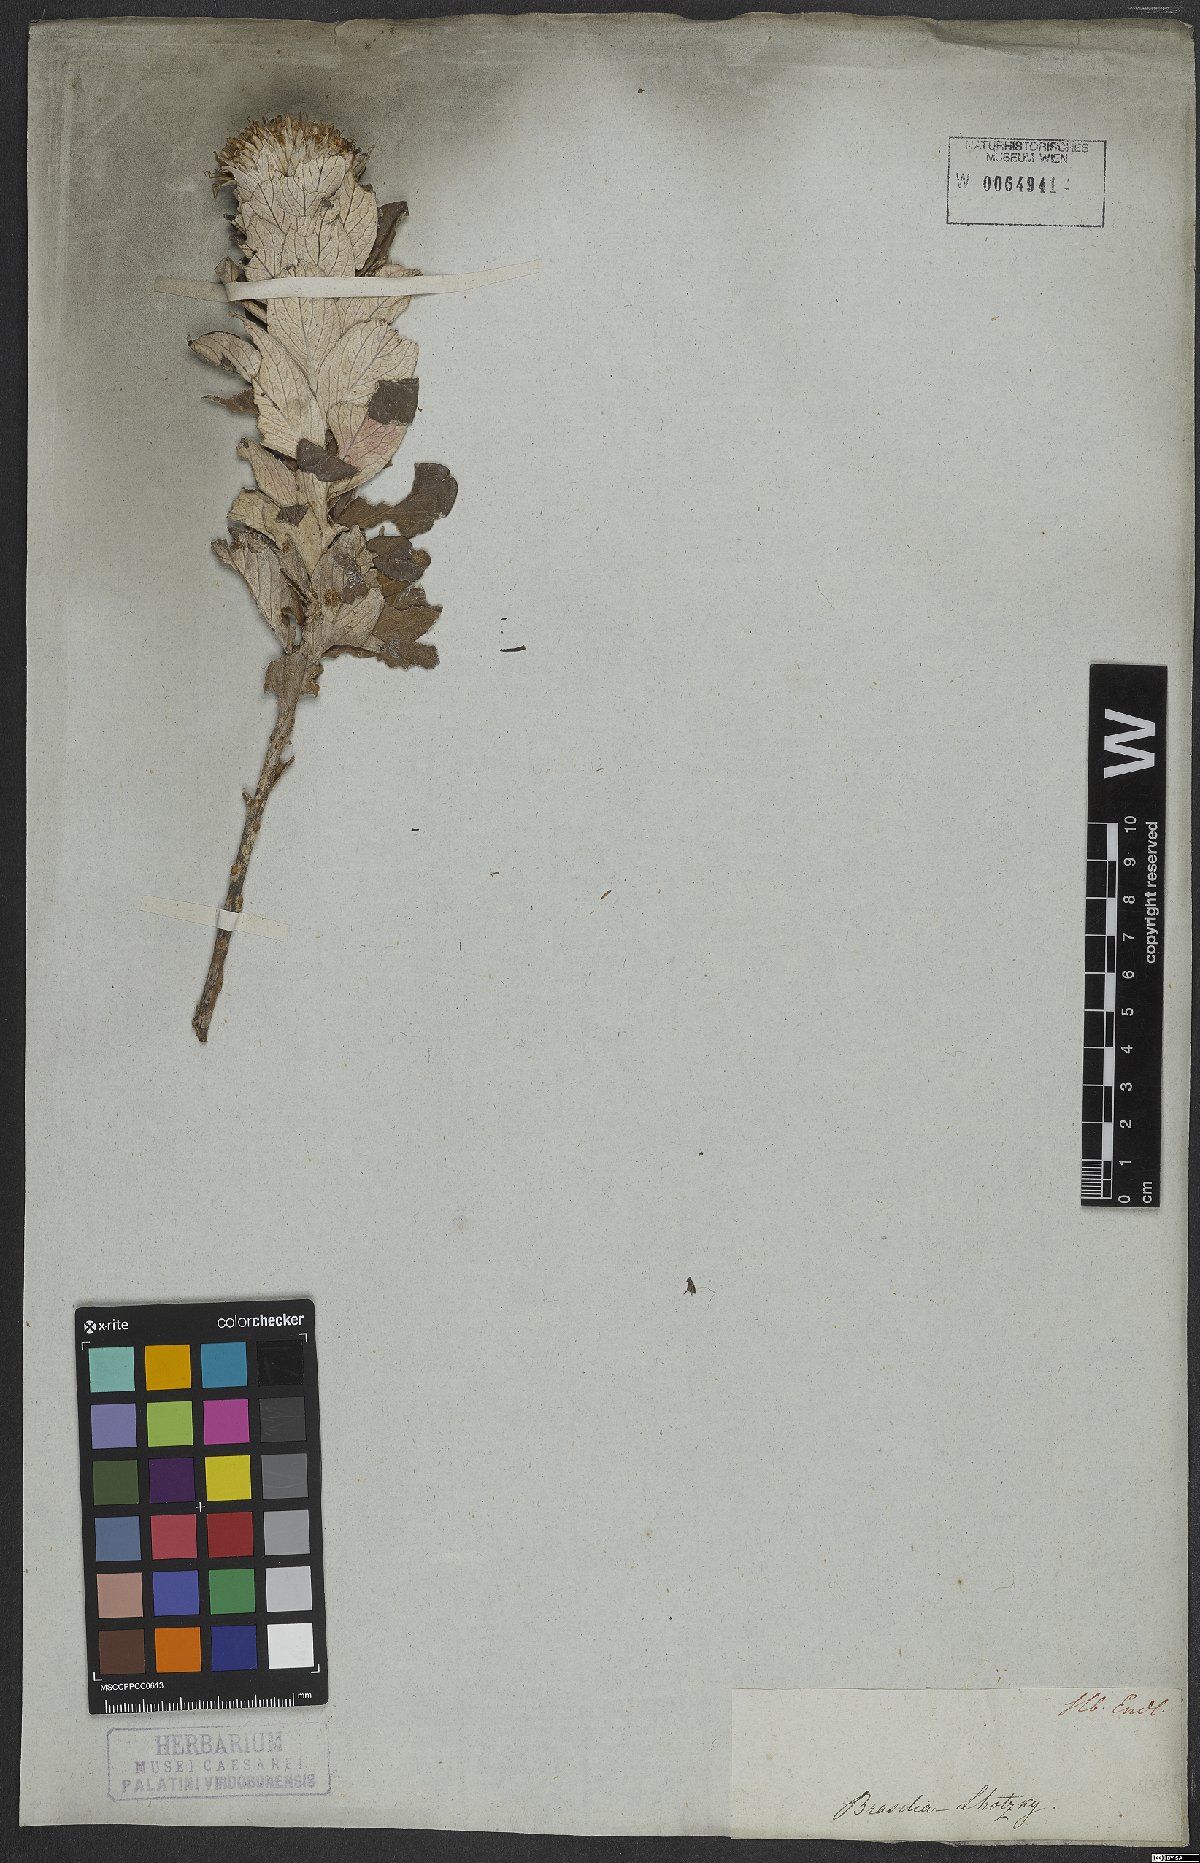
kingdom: Plantae
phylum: Tracheophyta
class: Magnoliopsida
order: Asterales
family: Asteraceae
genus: Lessingianthus
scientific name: Lessingianthus venosissimus
